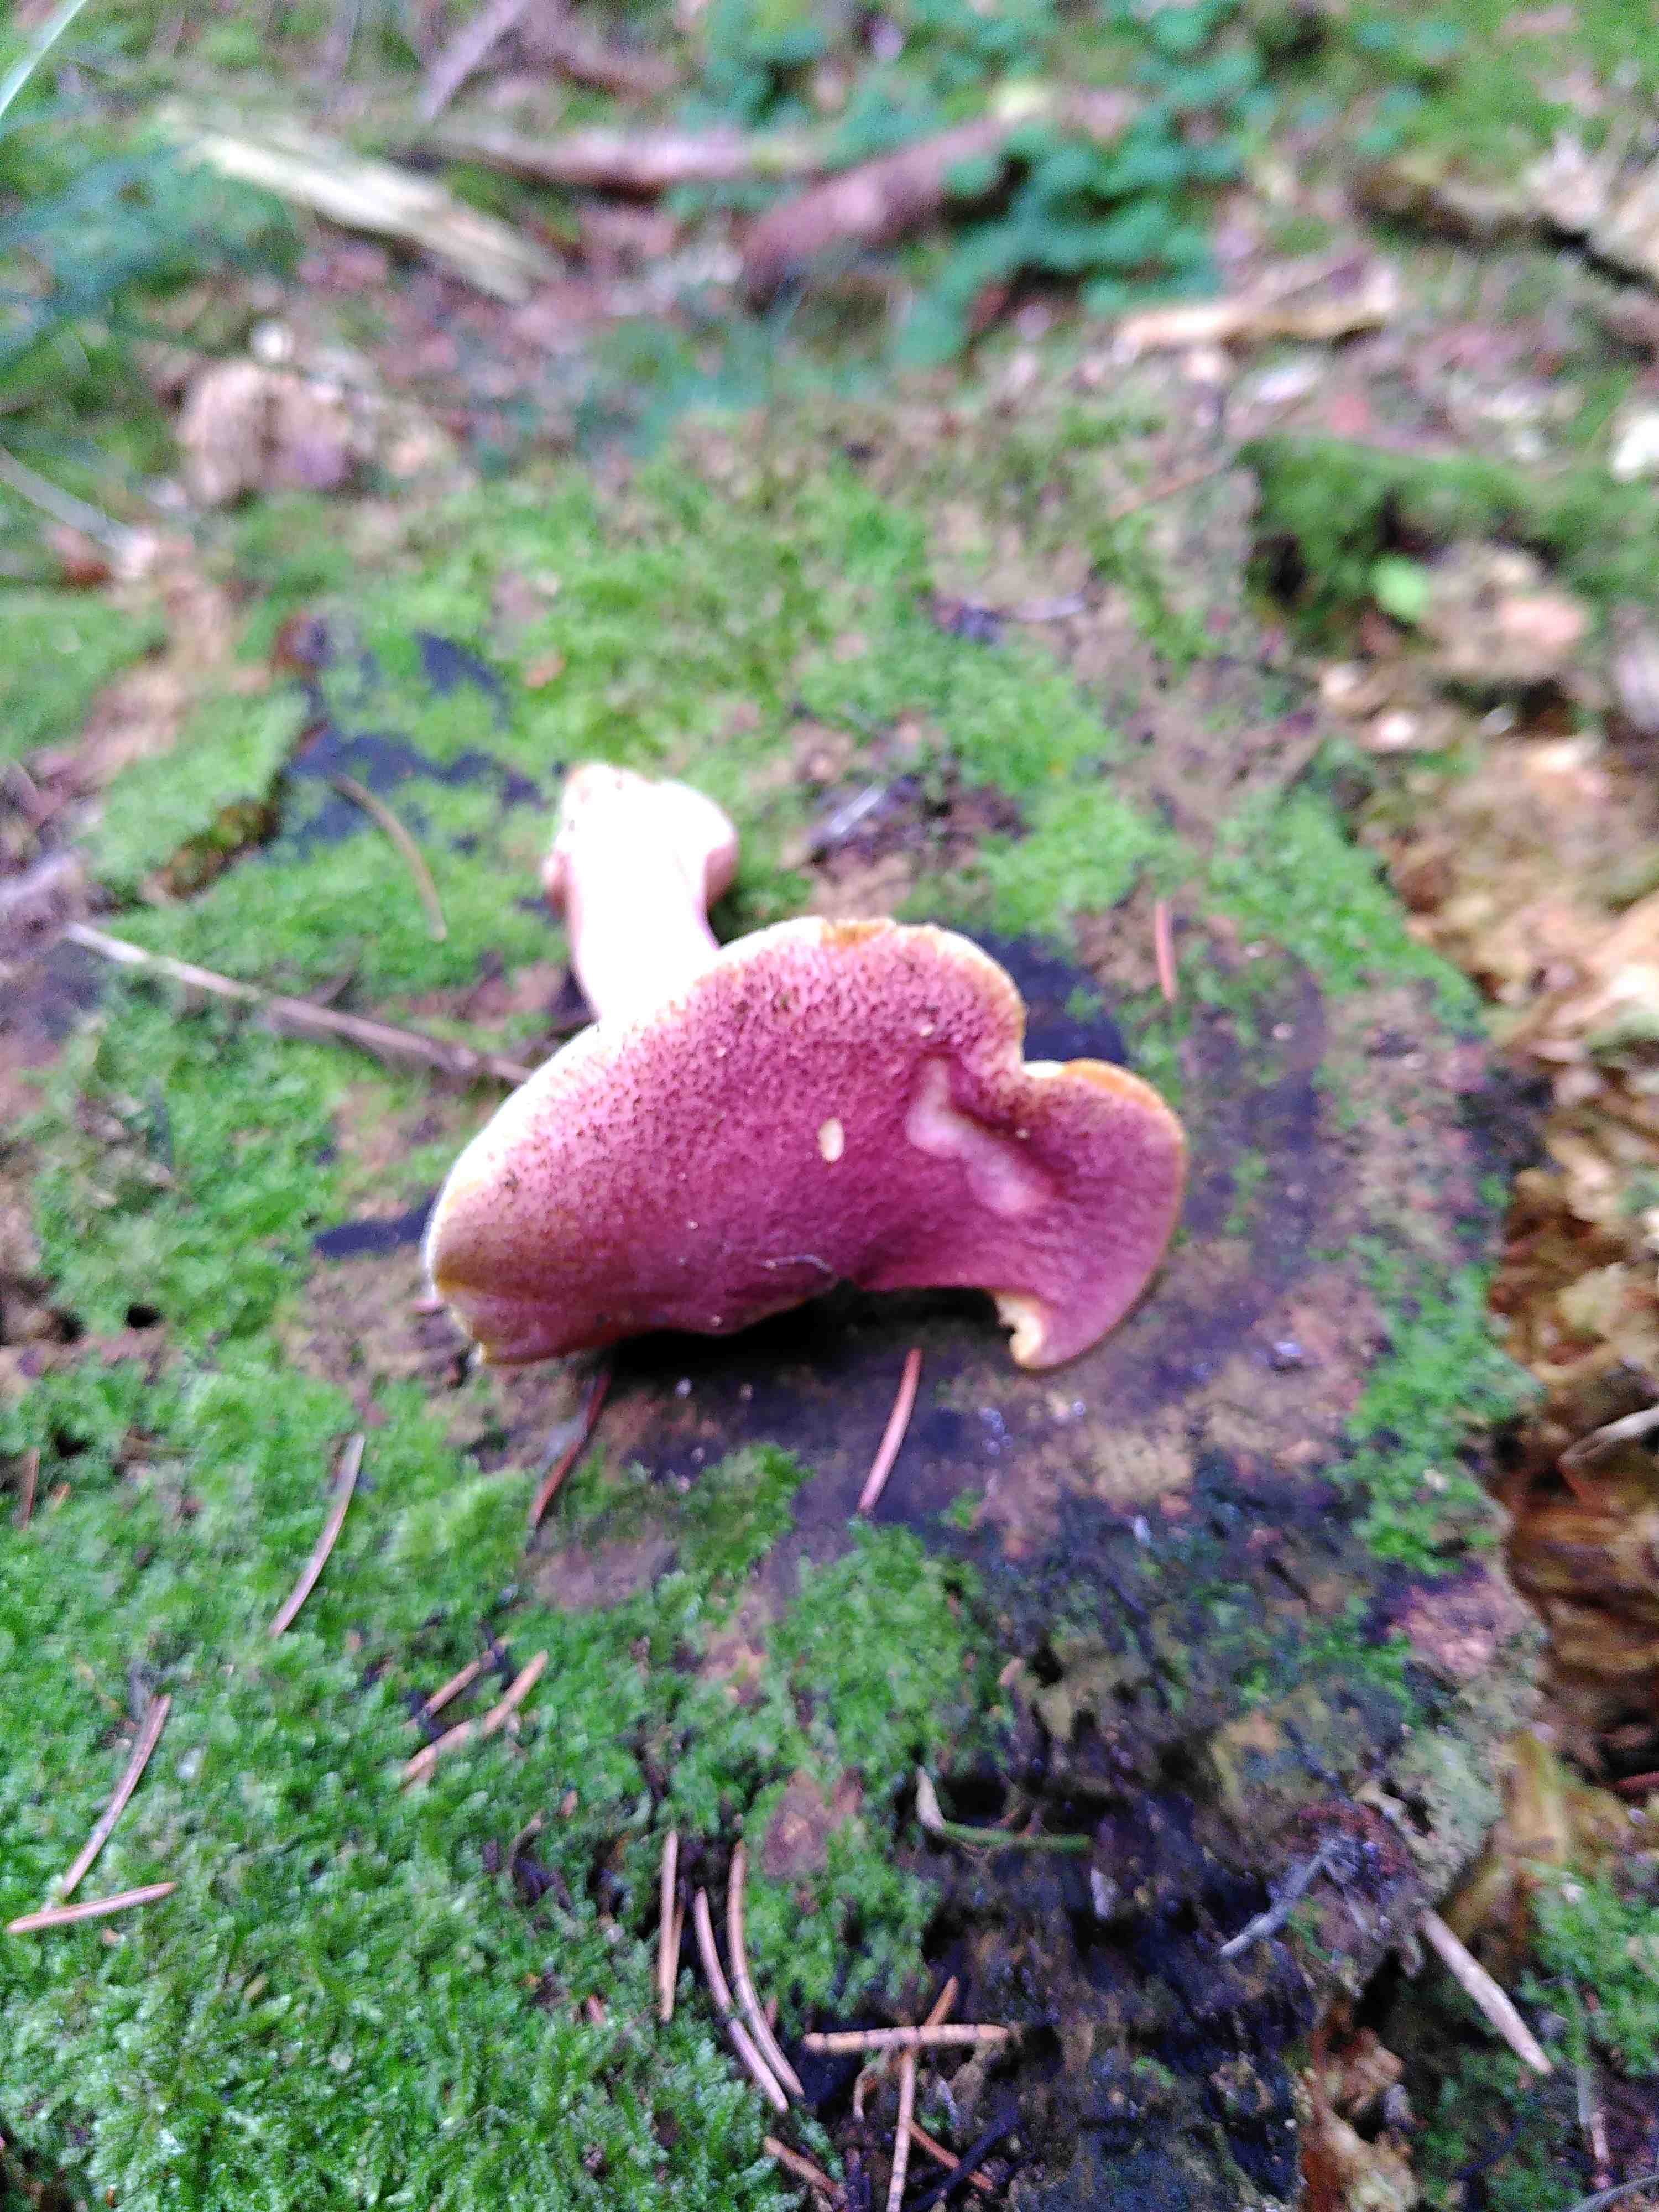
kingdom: Fungi
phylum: Basidiomycota
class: Agaricomycetes
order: Agaricales
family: Tricholomataceae
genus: Tricholomopsis
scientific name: Tricholomopsis rutilans
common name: purpur-væbnerhat
